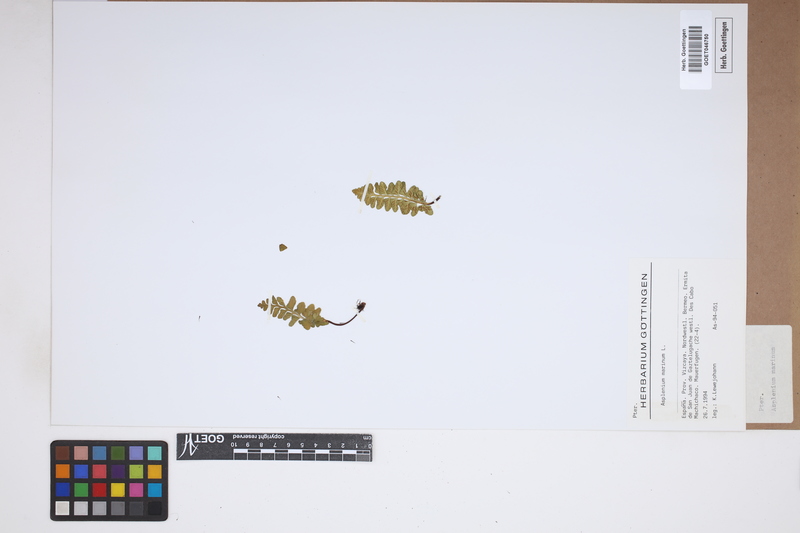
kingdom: Plantae
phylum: Tracheophyta
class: Polypodiopsida
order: Polypodiales
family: Aspleniaceae
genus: Asplenium
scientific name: Asplenium marinum
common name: Sea spleenwort
